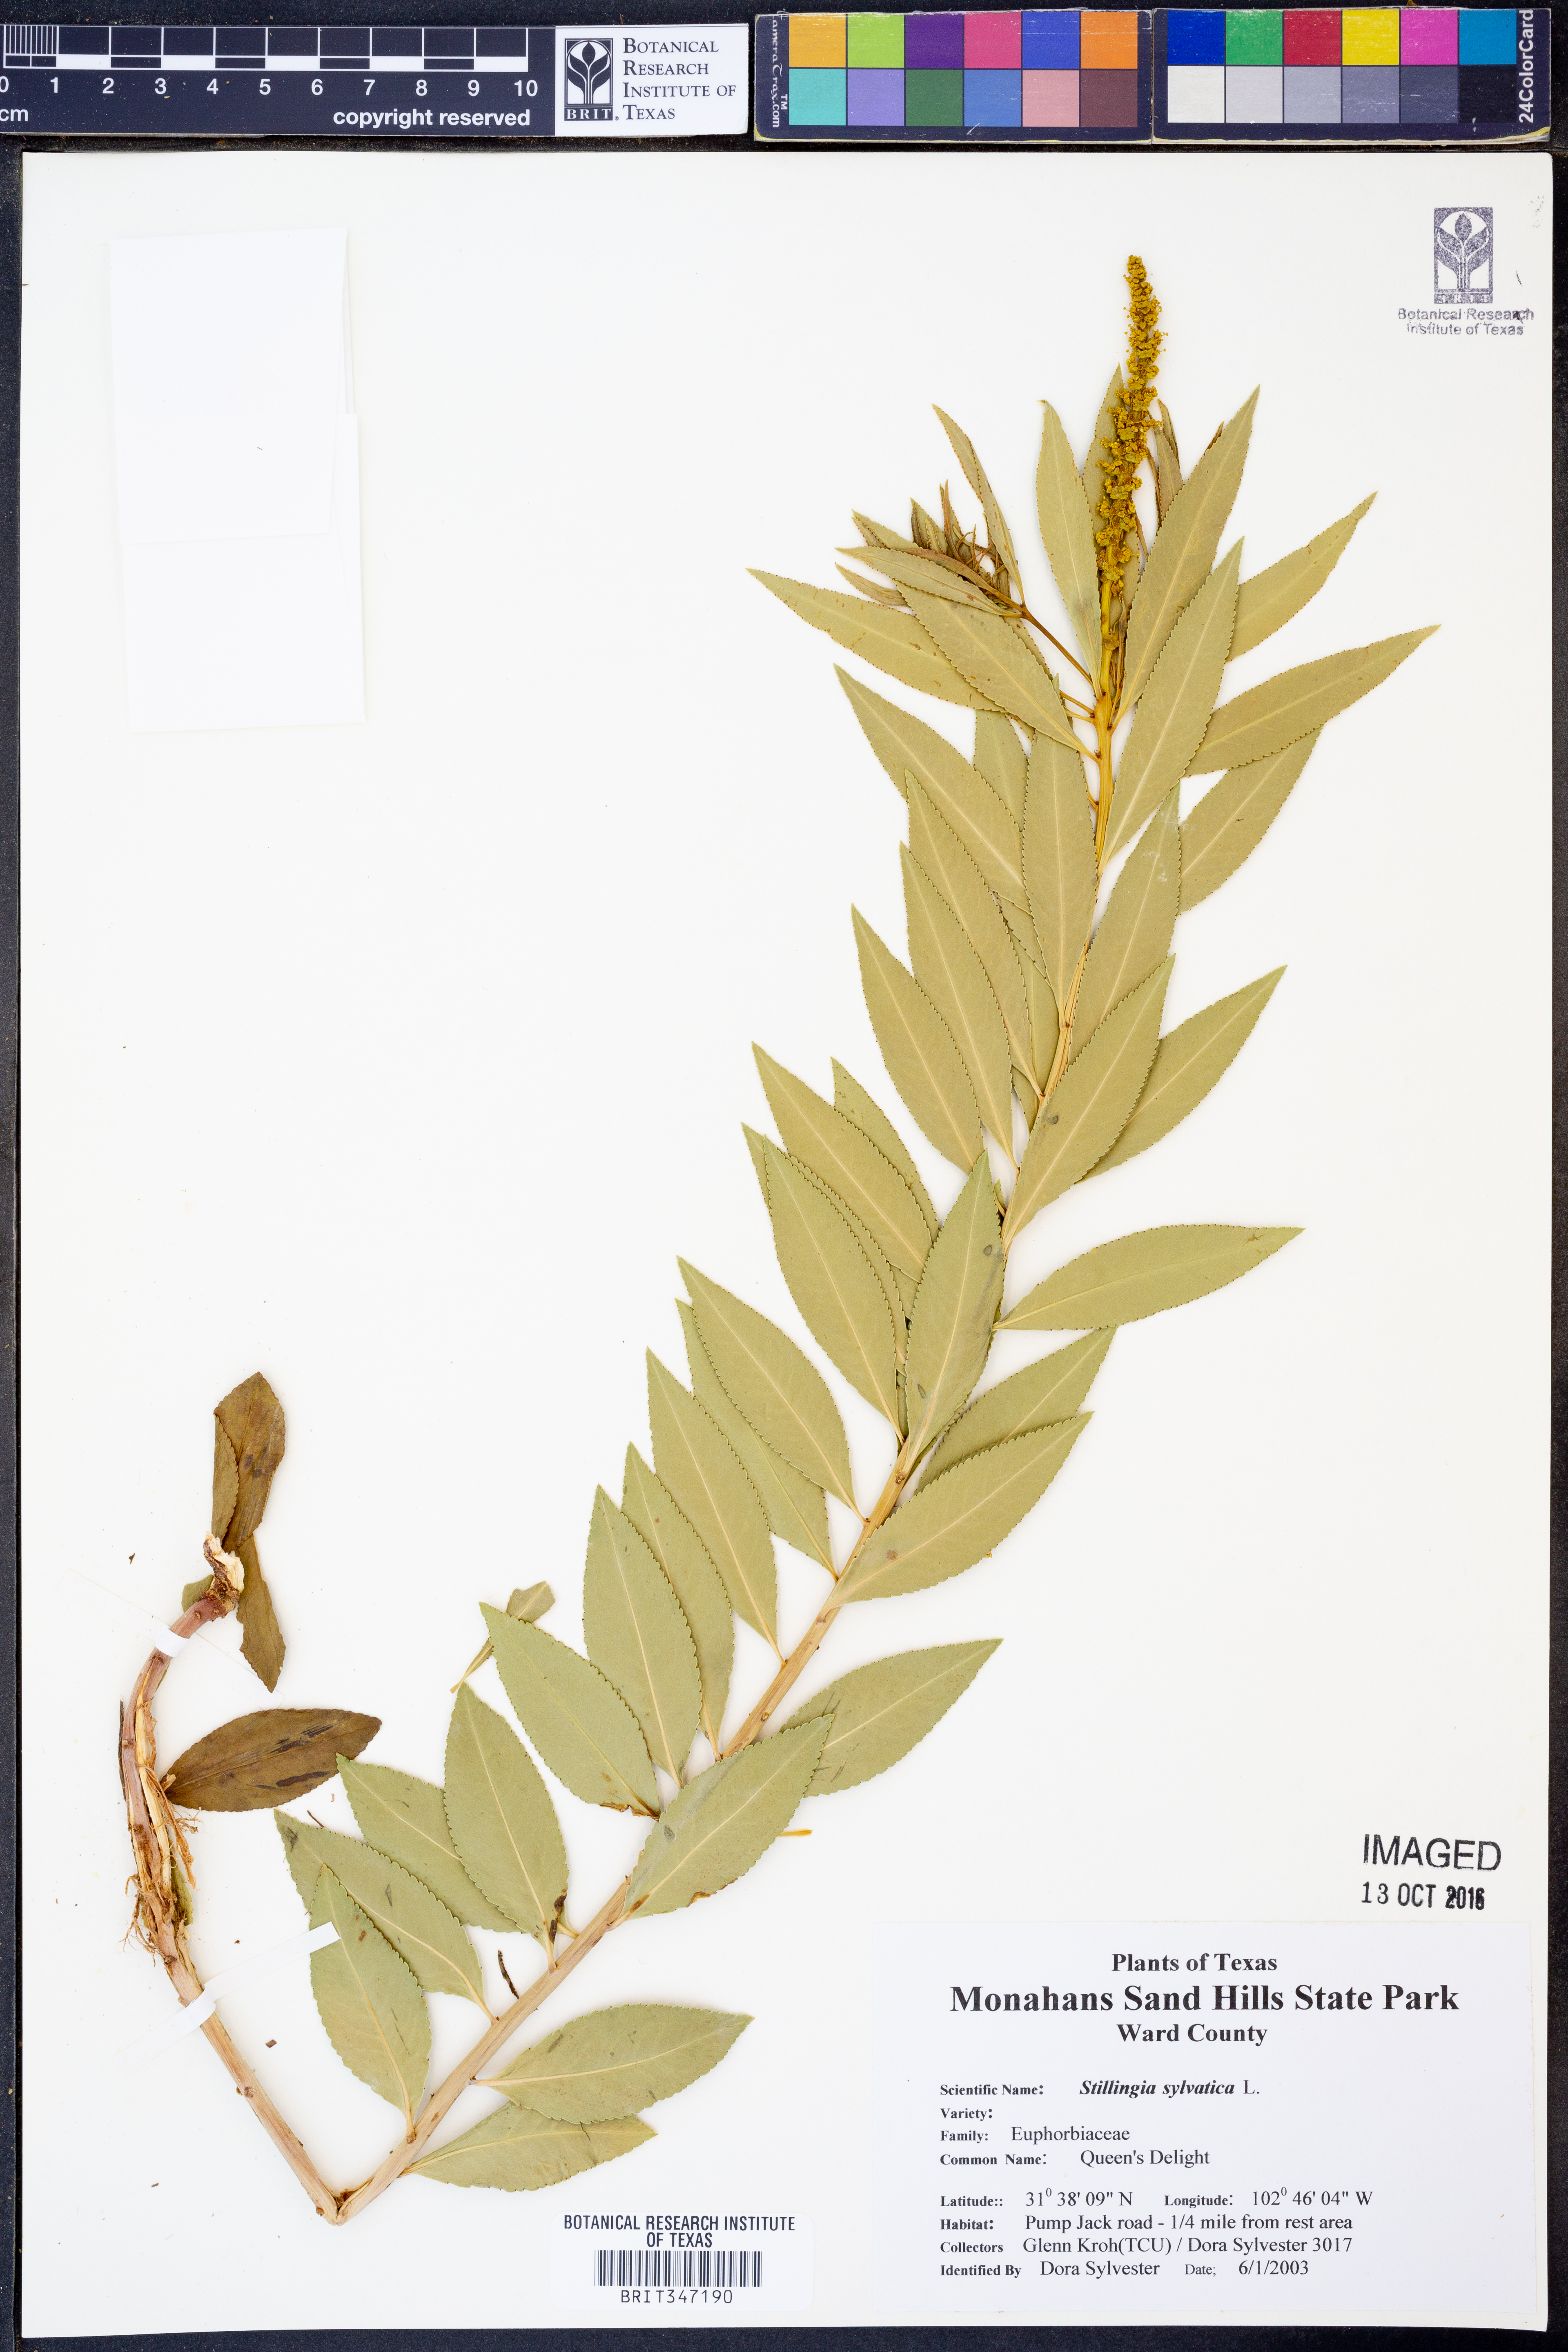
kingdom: Plantae
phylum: Tracheophyta
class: Magnoliopsida
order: Malpighiales
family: Euphorbiaceae
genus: Stillingia
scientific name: Stillingia sylvatica
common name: Queen's-delight
